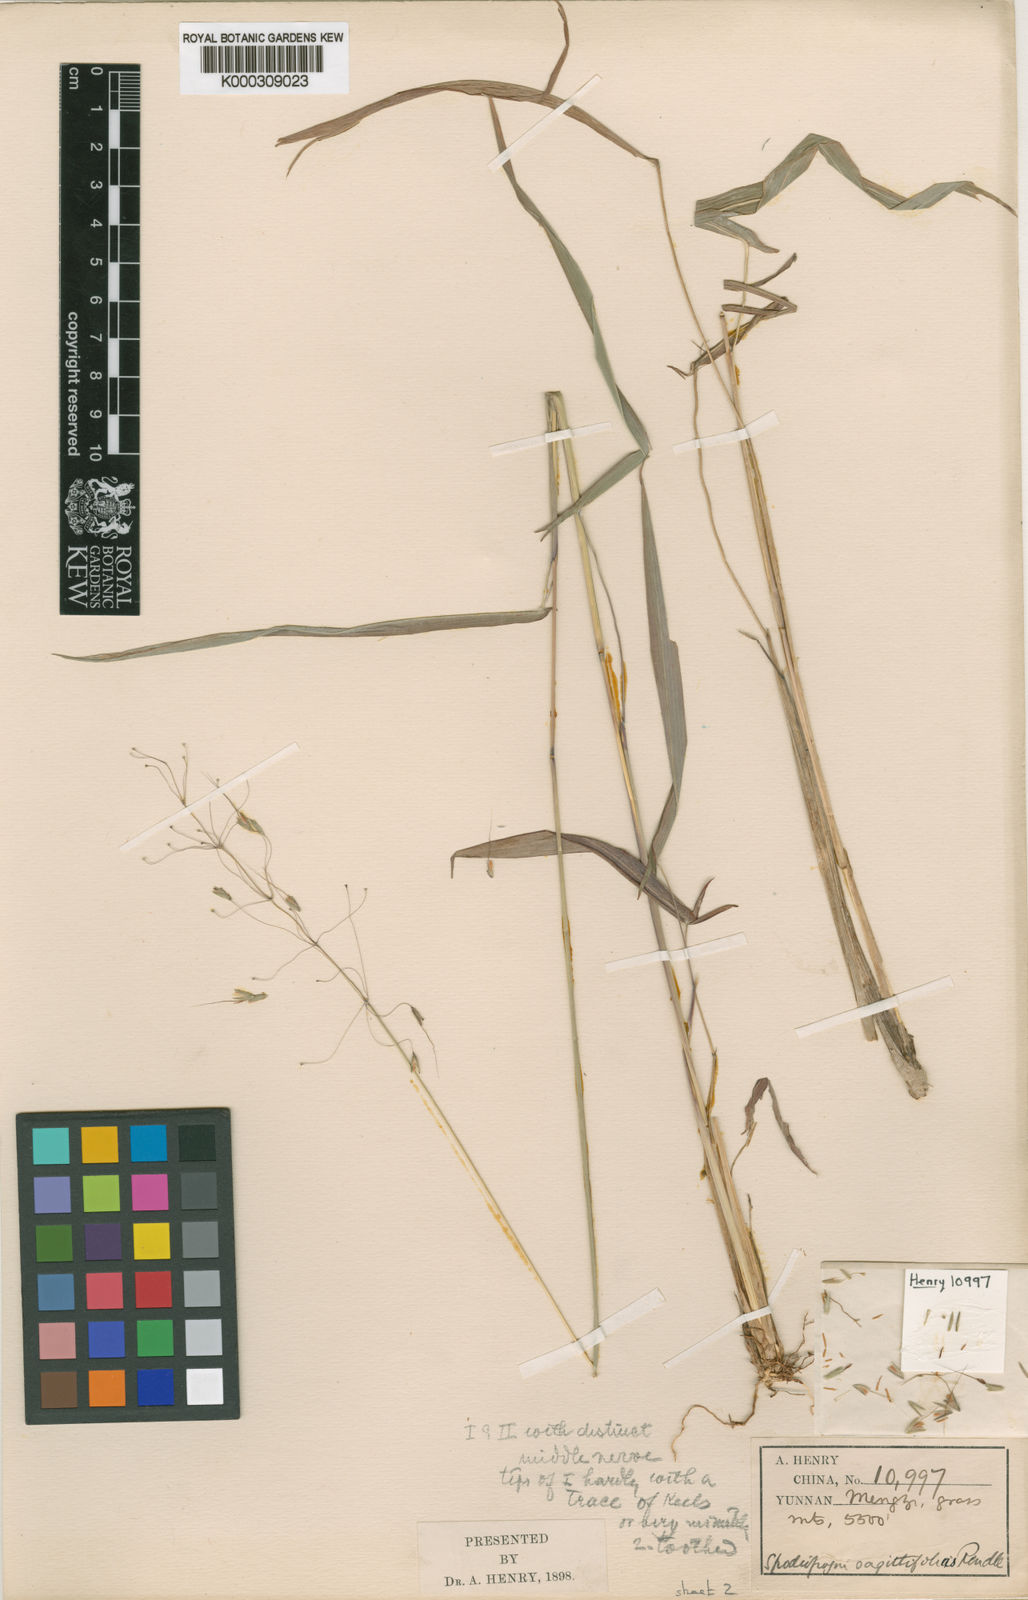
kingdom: Plantae
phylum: Tracheophyta
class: Liliopsida
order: Poales
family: Poaceae
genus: Spodiopogon
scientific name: Spodiopogon sagittifolius
